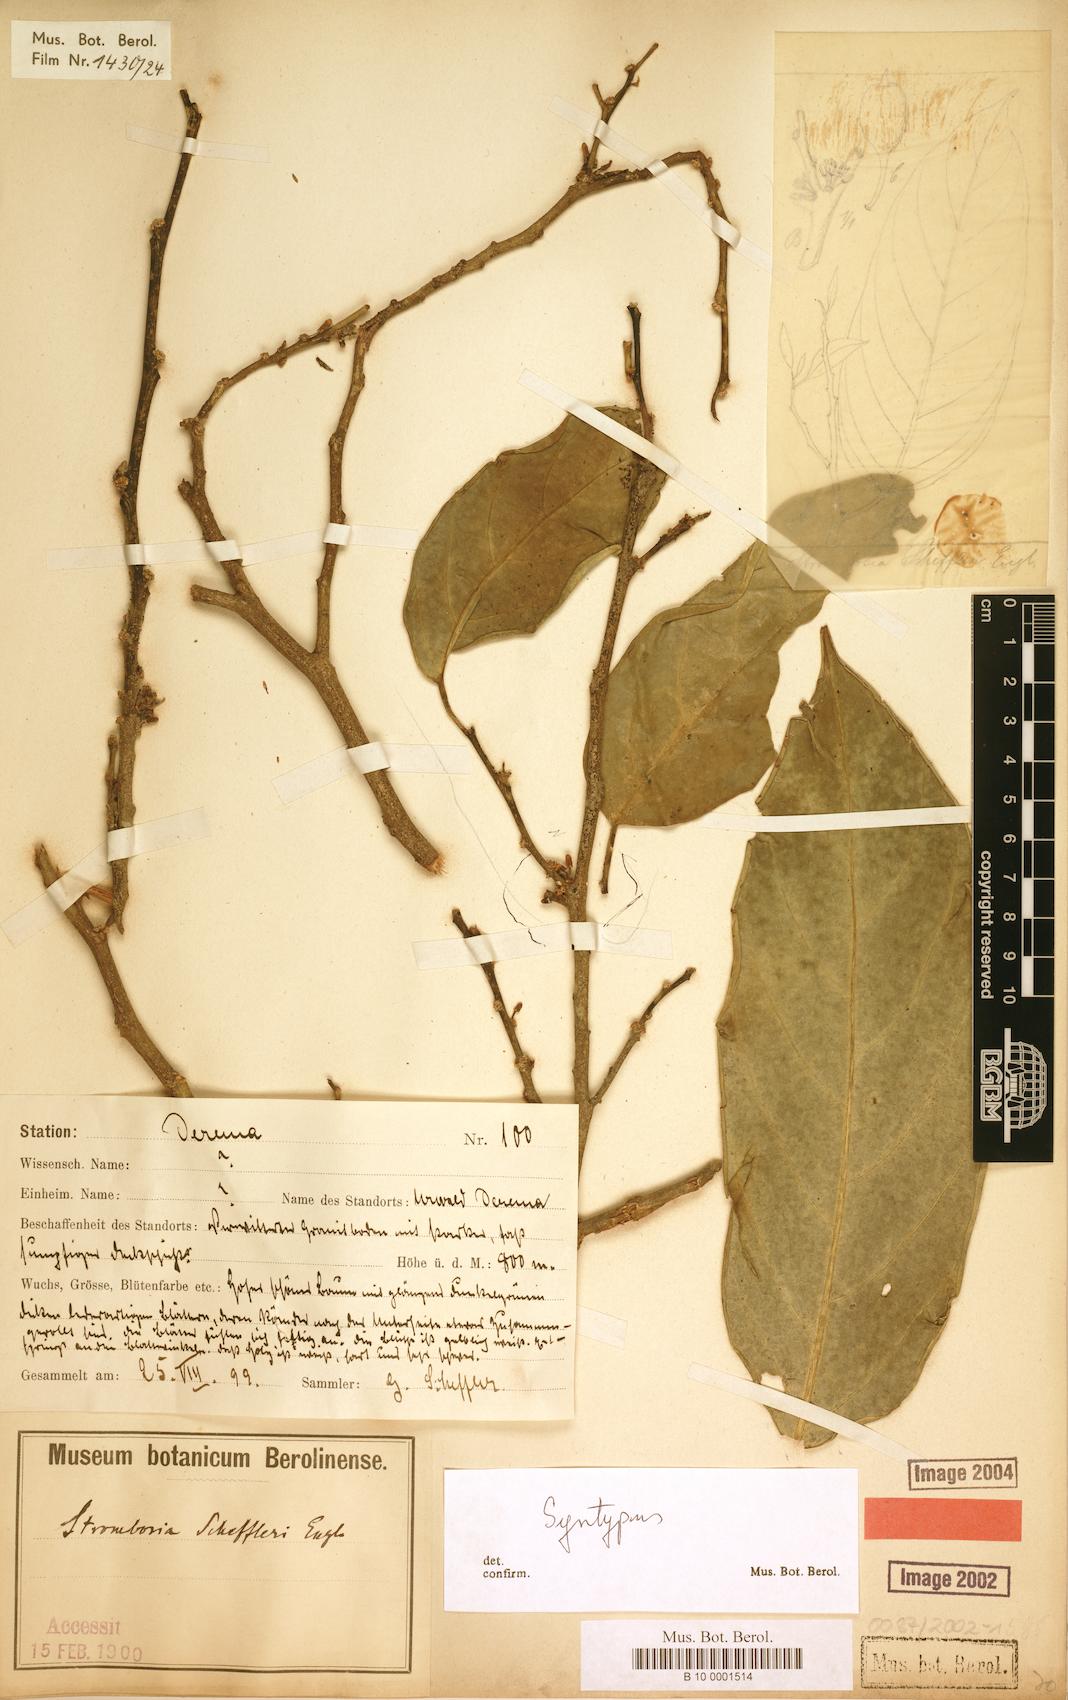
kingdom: Plantae
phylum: Tracheophyta
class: Magnoliopsida
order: Santalales
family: Strombosiaceae
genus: Strombosia
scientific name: Strombosia scheffleri
